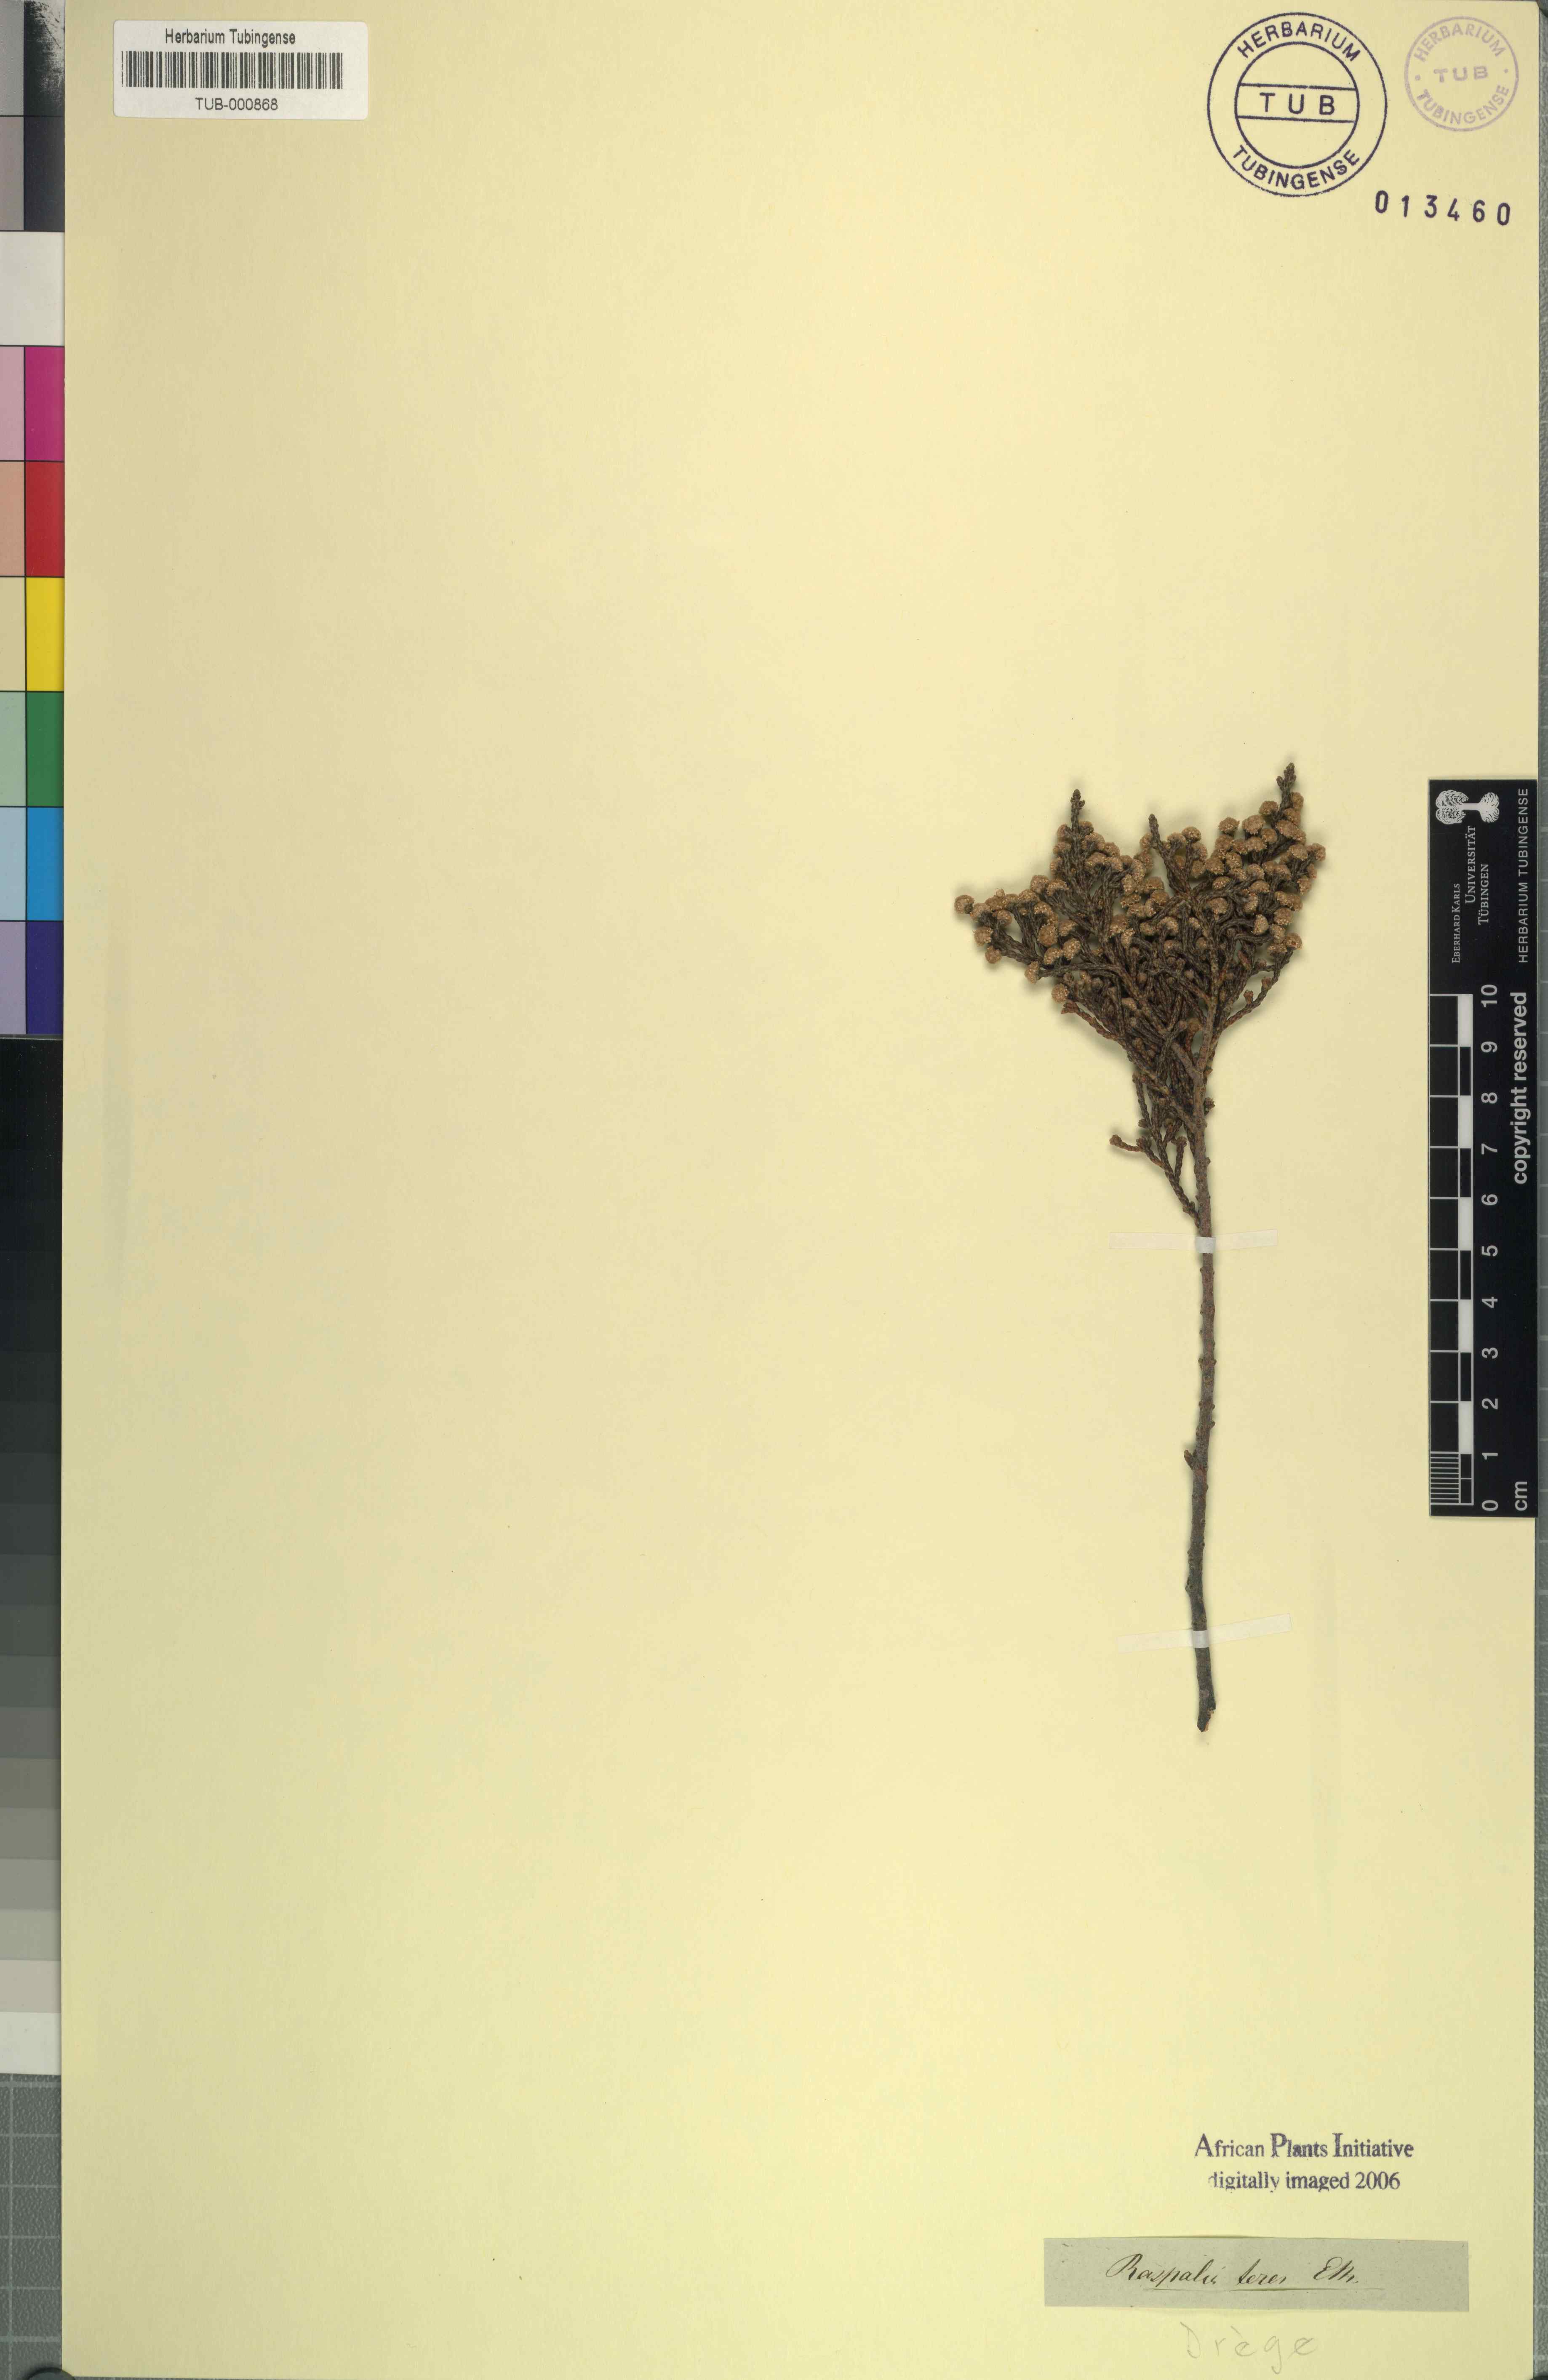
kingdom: Plantae
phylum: Tracheophyta
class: Magnoliopsida
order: Bruniales
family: Bruniaceae
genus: Brunia
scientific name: Brunia microphylla
